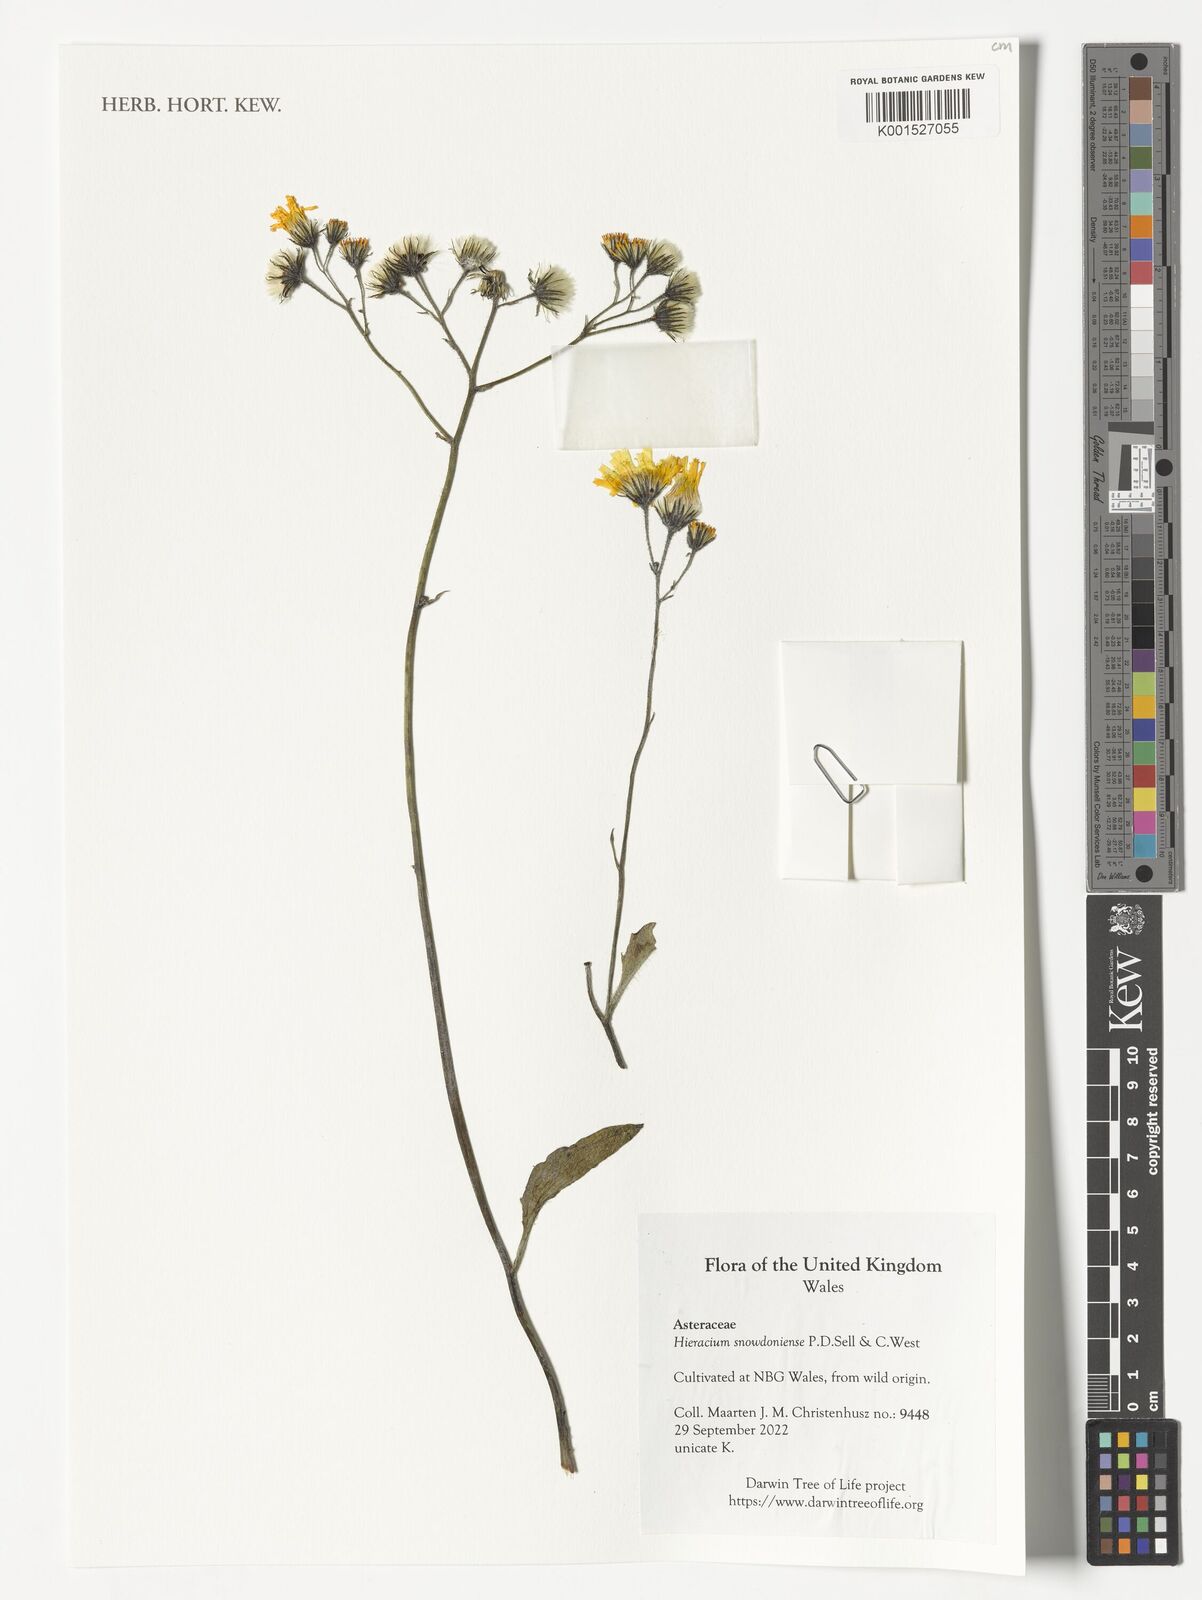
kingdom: Plantae
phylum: Tracheophyta
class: Magnoliopsida
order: Asterales
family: Asteraceae
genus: Hieracium
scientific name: Hieracium snowdoniense
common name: Snowdonia hawkweed
